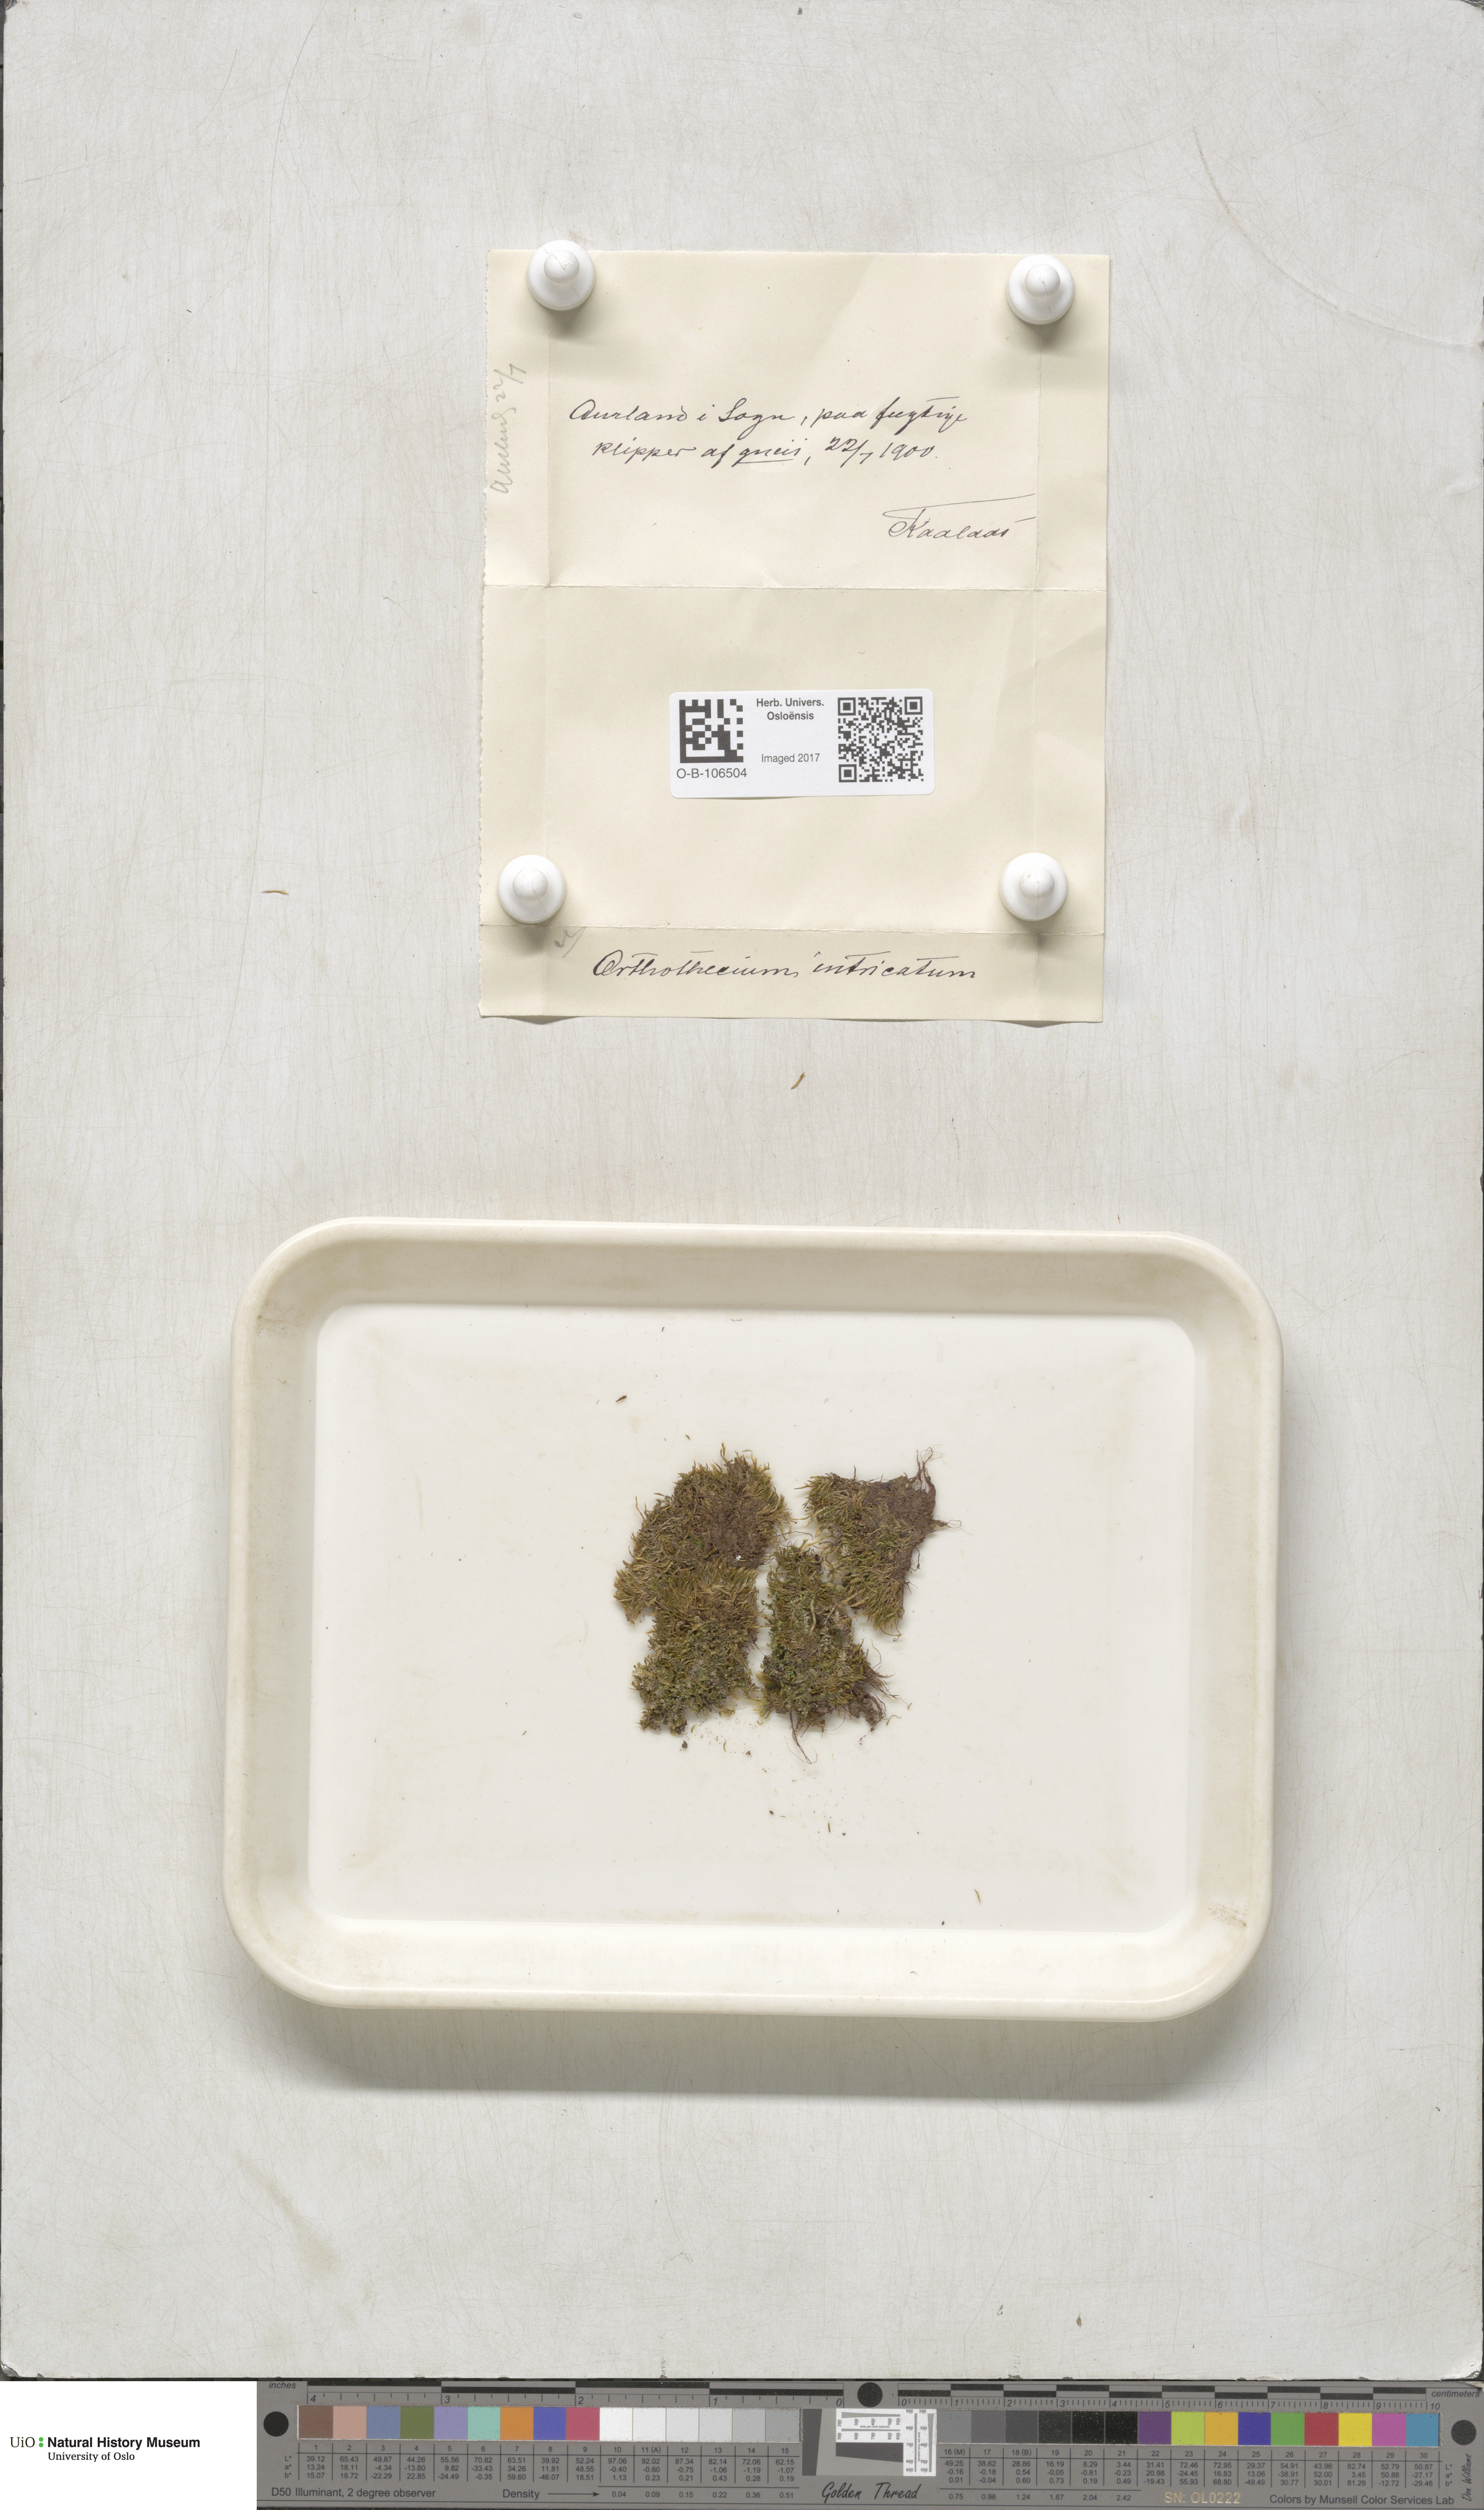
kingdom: Plantae
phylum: Bryophyta
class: Bryopsida
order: Hypnales
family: Plagiotheciaceae
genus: Orthothecium
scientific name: Orthothecium intricatum
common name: Fine-leaved erect-capsule moss
